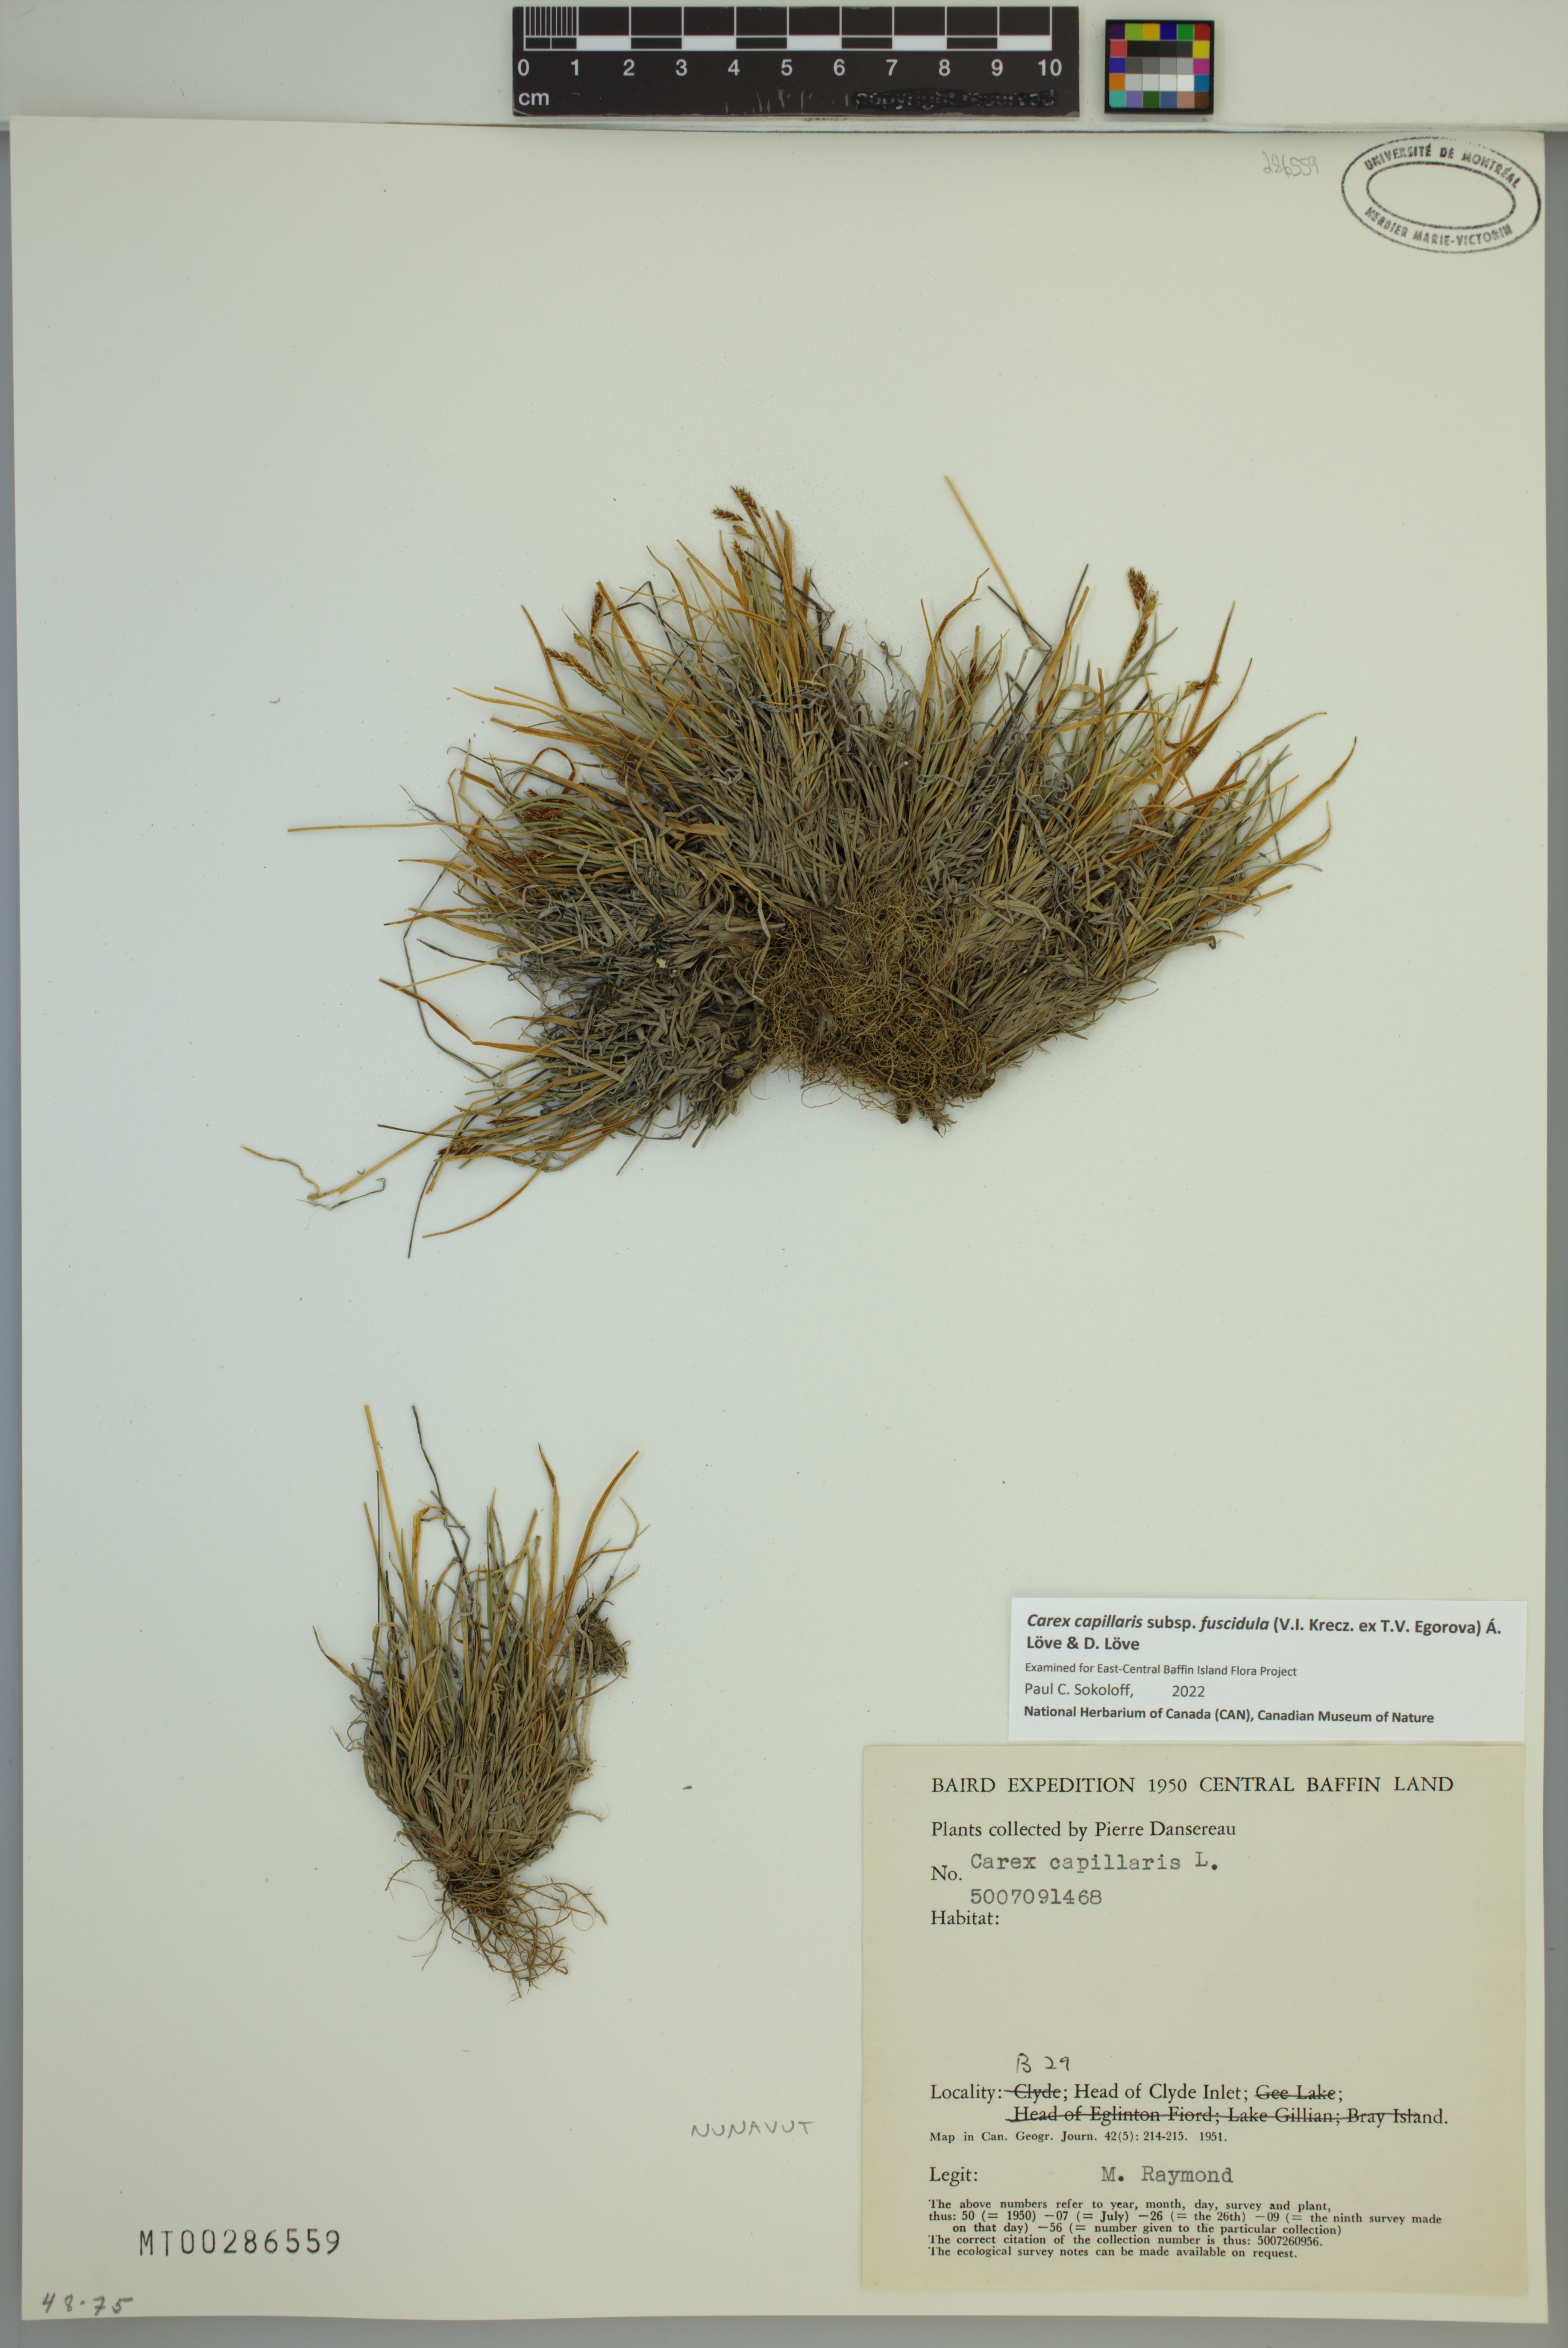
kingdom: Plantae
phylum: Tracheophyta
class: Liliopsida
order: Poales
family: Cyperaceae
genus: Carex
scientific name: Carex capillaris
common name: Hair sedge
